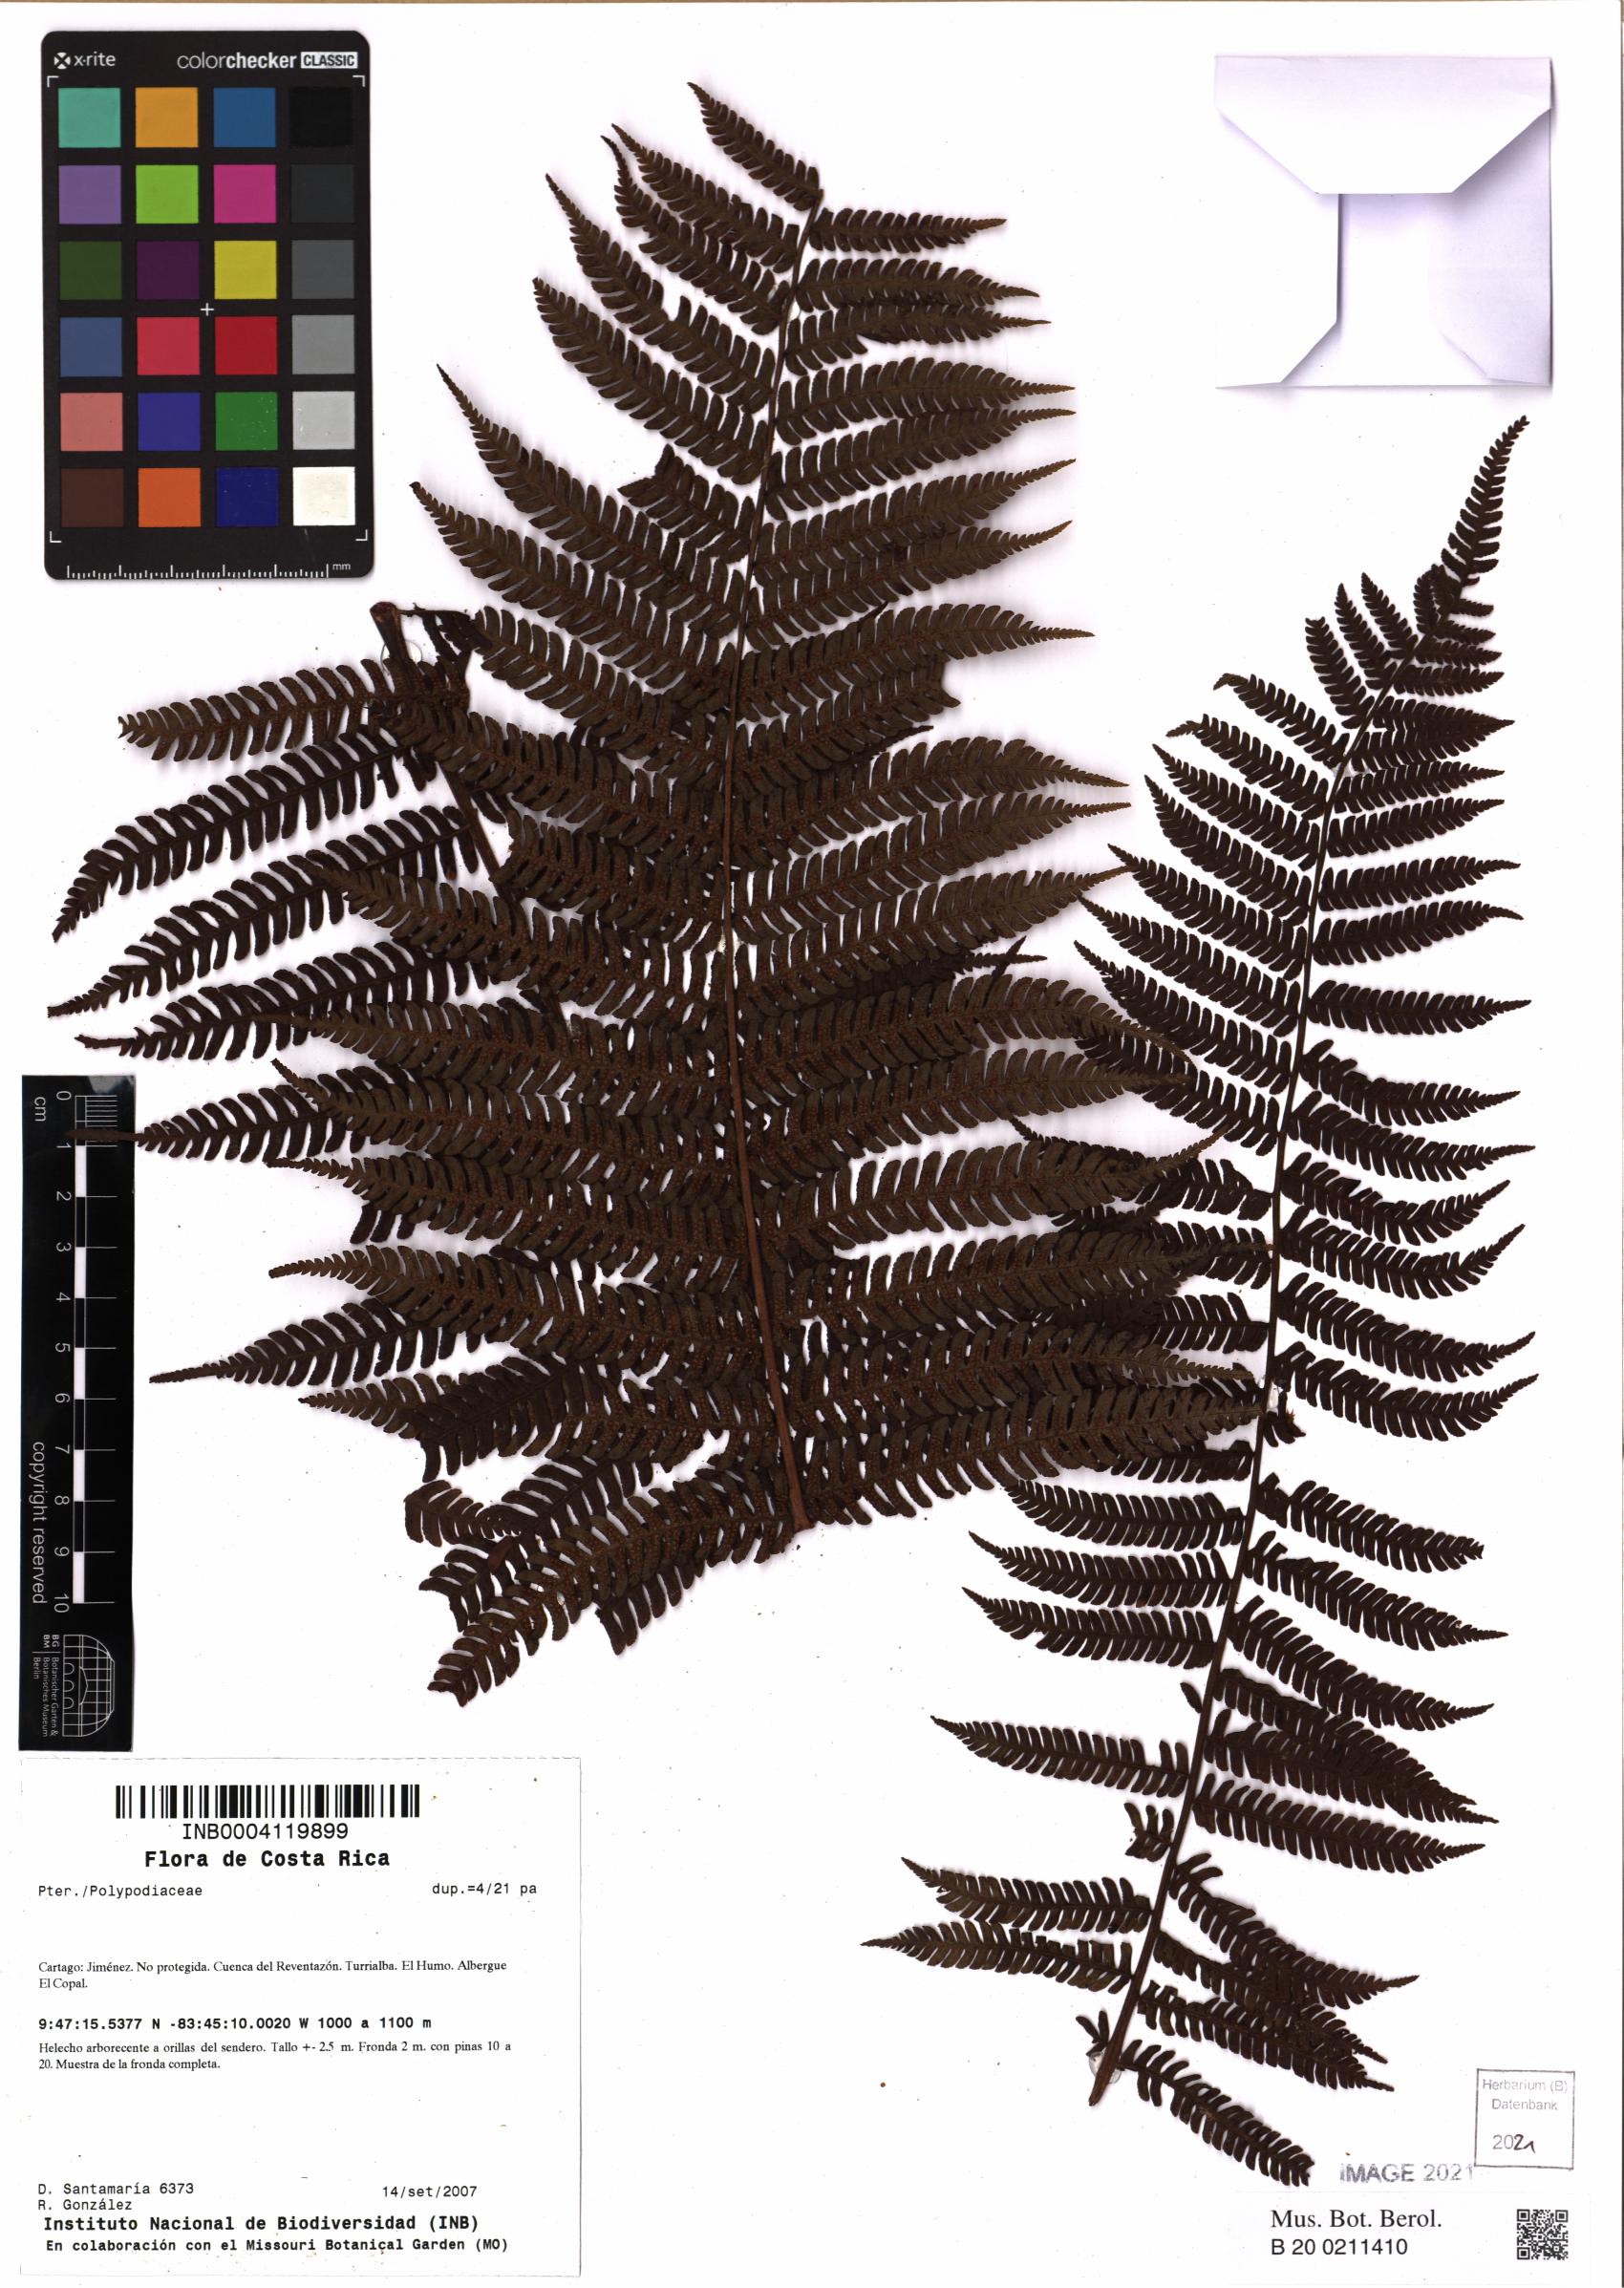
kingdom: Plantae
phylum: Tracheophyta
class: Polypodiopsida
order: Polypodiales
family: Polypodiaceae
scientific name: Polypodiaceae
